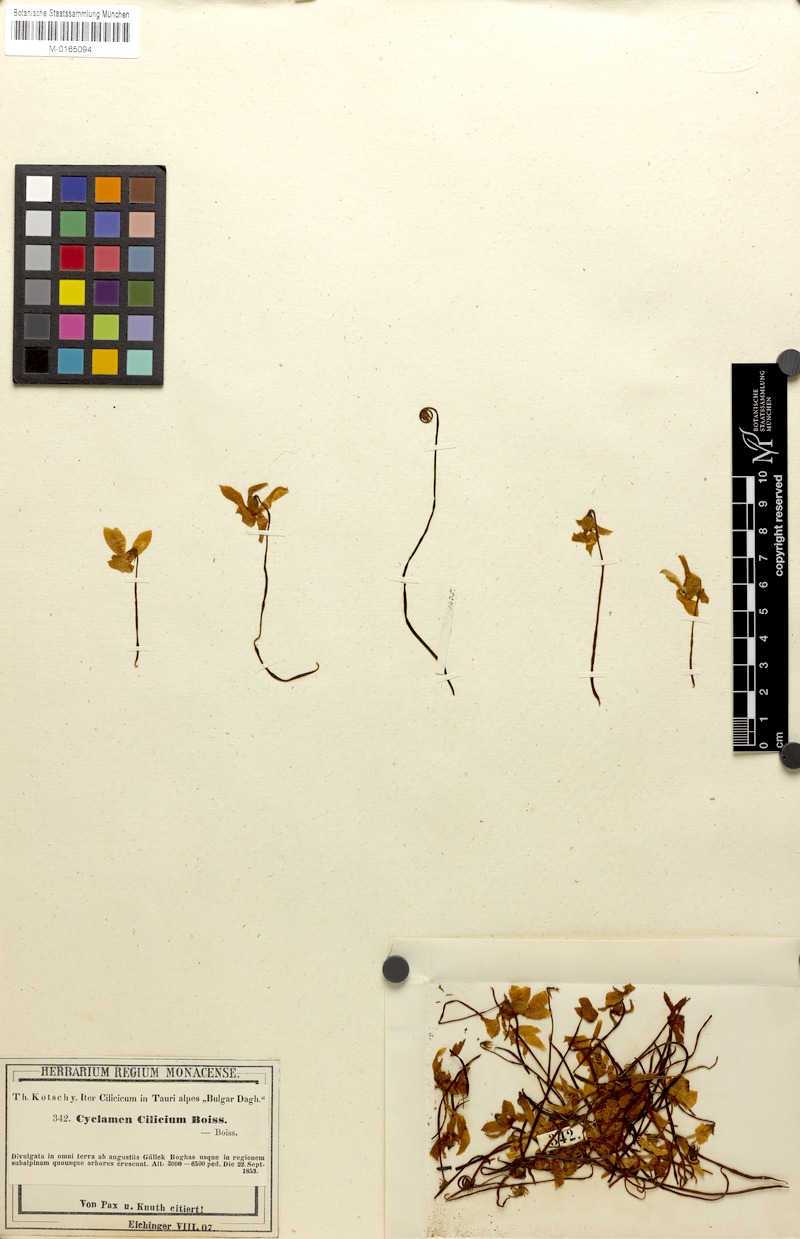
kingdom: Plantae
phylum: Tracheophyta
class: Magnoliopsida
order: Ericales
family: Primulaceae
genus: Cyclamen
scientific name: Cyclamen cilicium
